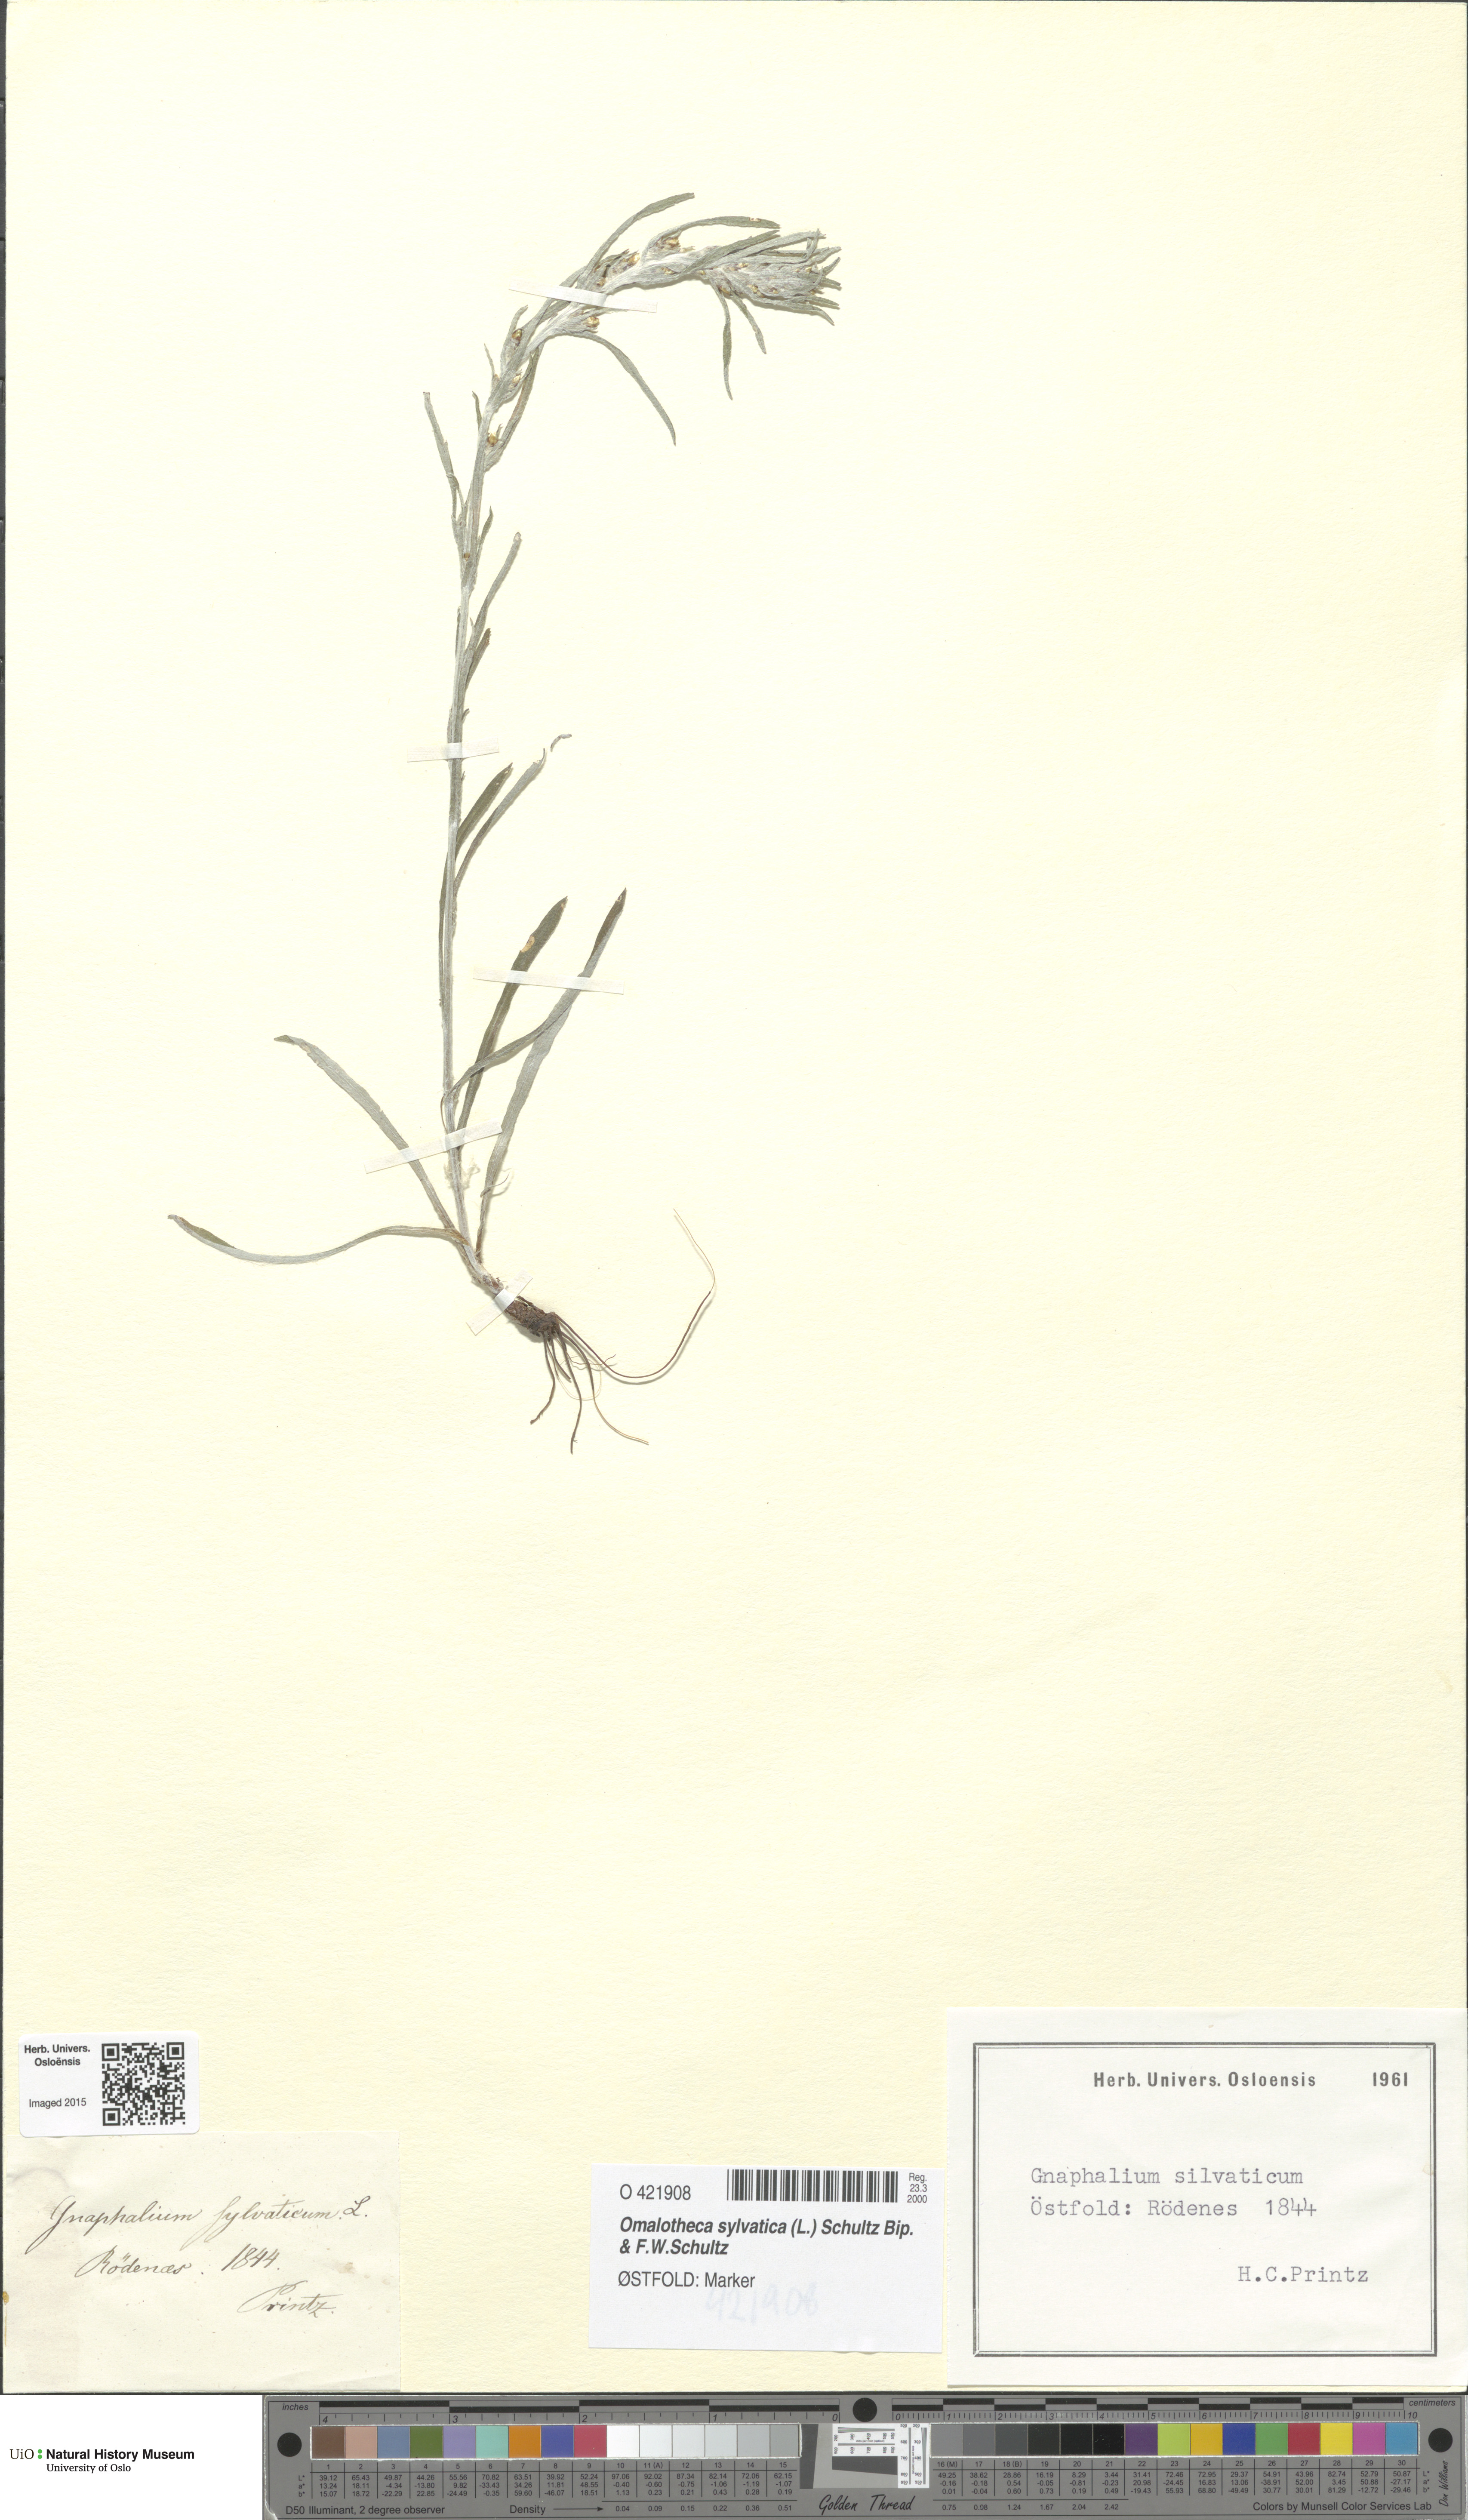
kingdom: Plantae
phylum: Tracheophyta
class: Magnoliopsida
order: Asterales
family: Asteraceae
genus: Omalotheca
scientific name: Omalotheca sylvatica
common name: Heath cudweed
